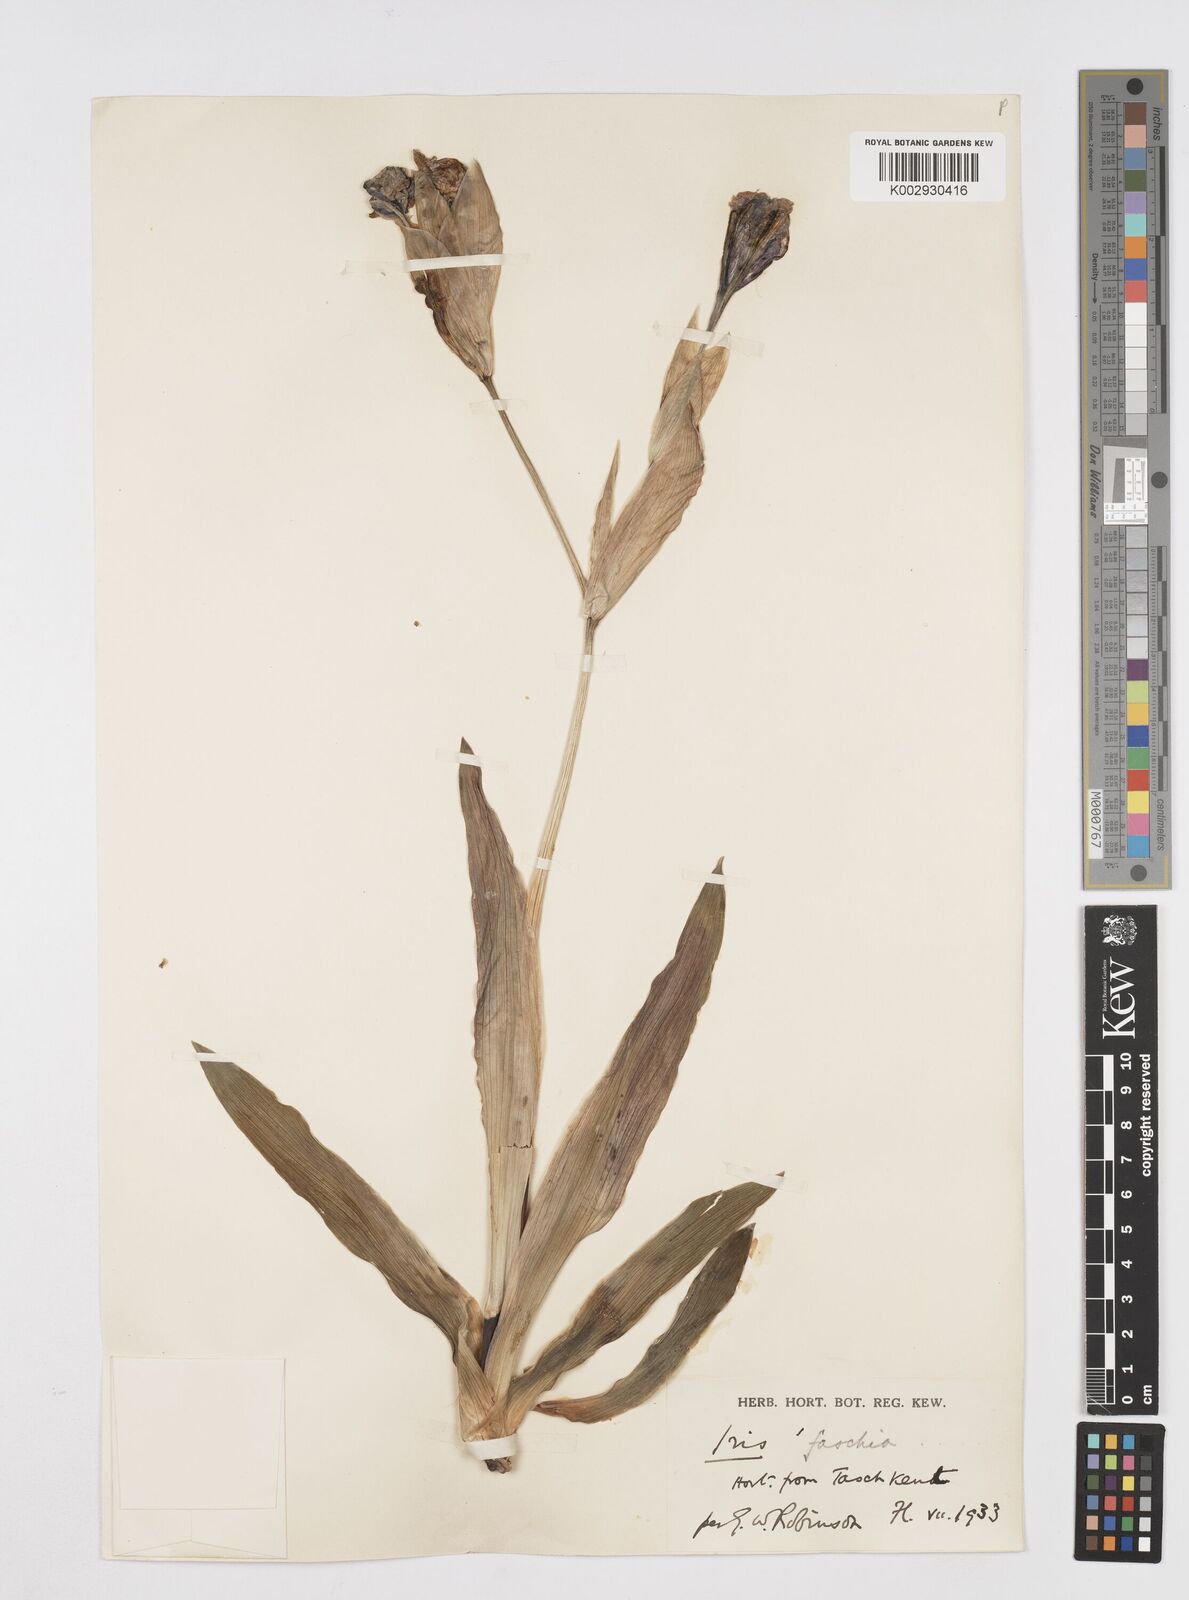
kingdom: Plantae
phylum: Tracheophyta
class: Liliopsida
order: Asparagales
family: Iridaceae
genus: Iris
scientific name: Iris
